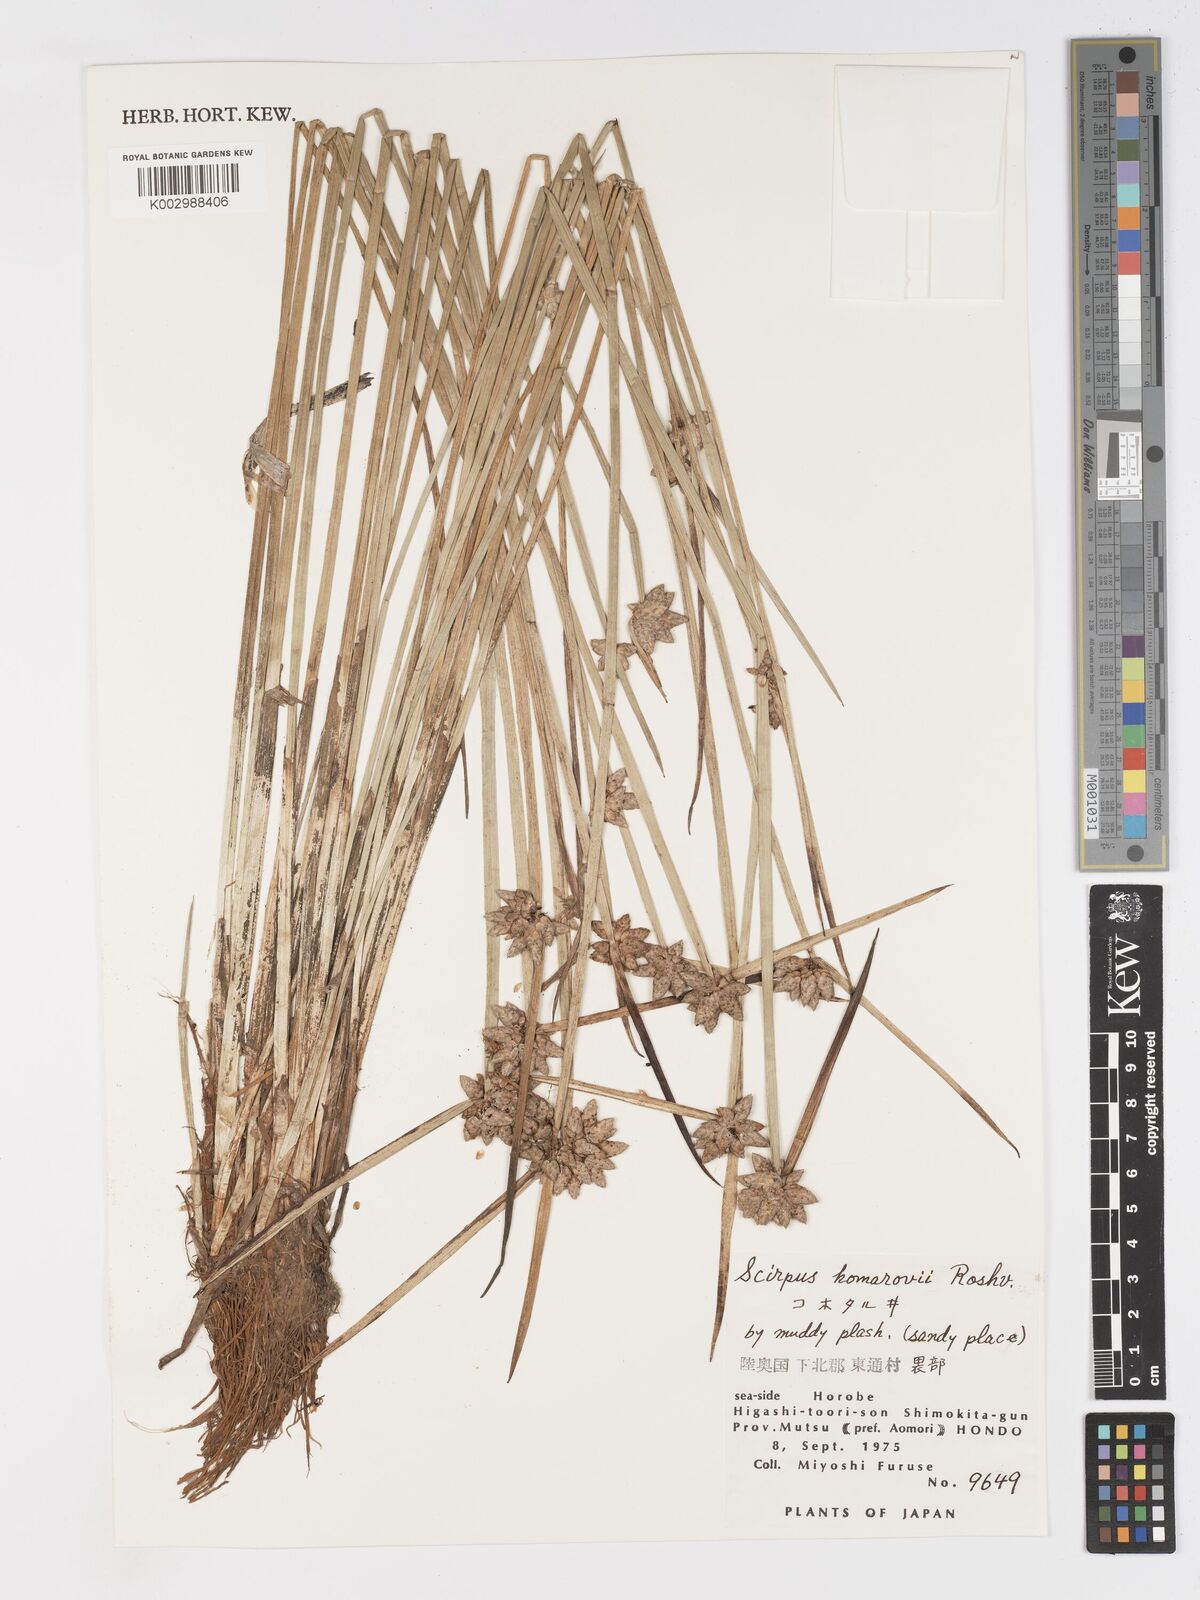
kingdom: Plantae
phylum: Tracheophyta
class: Liliopsida
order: Poales
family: Cyperaceae
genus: Schoenoplectiella
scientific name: Schoenoplectiella komarovii
